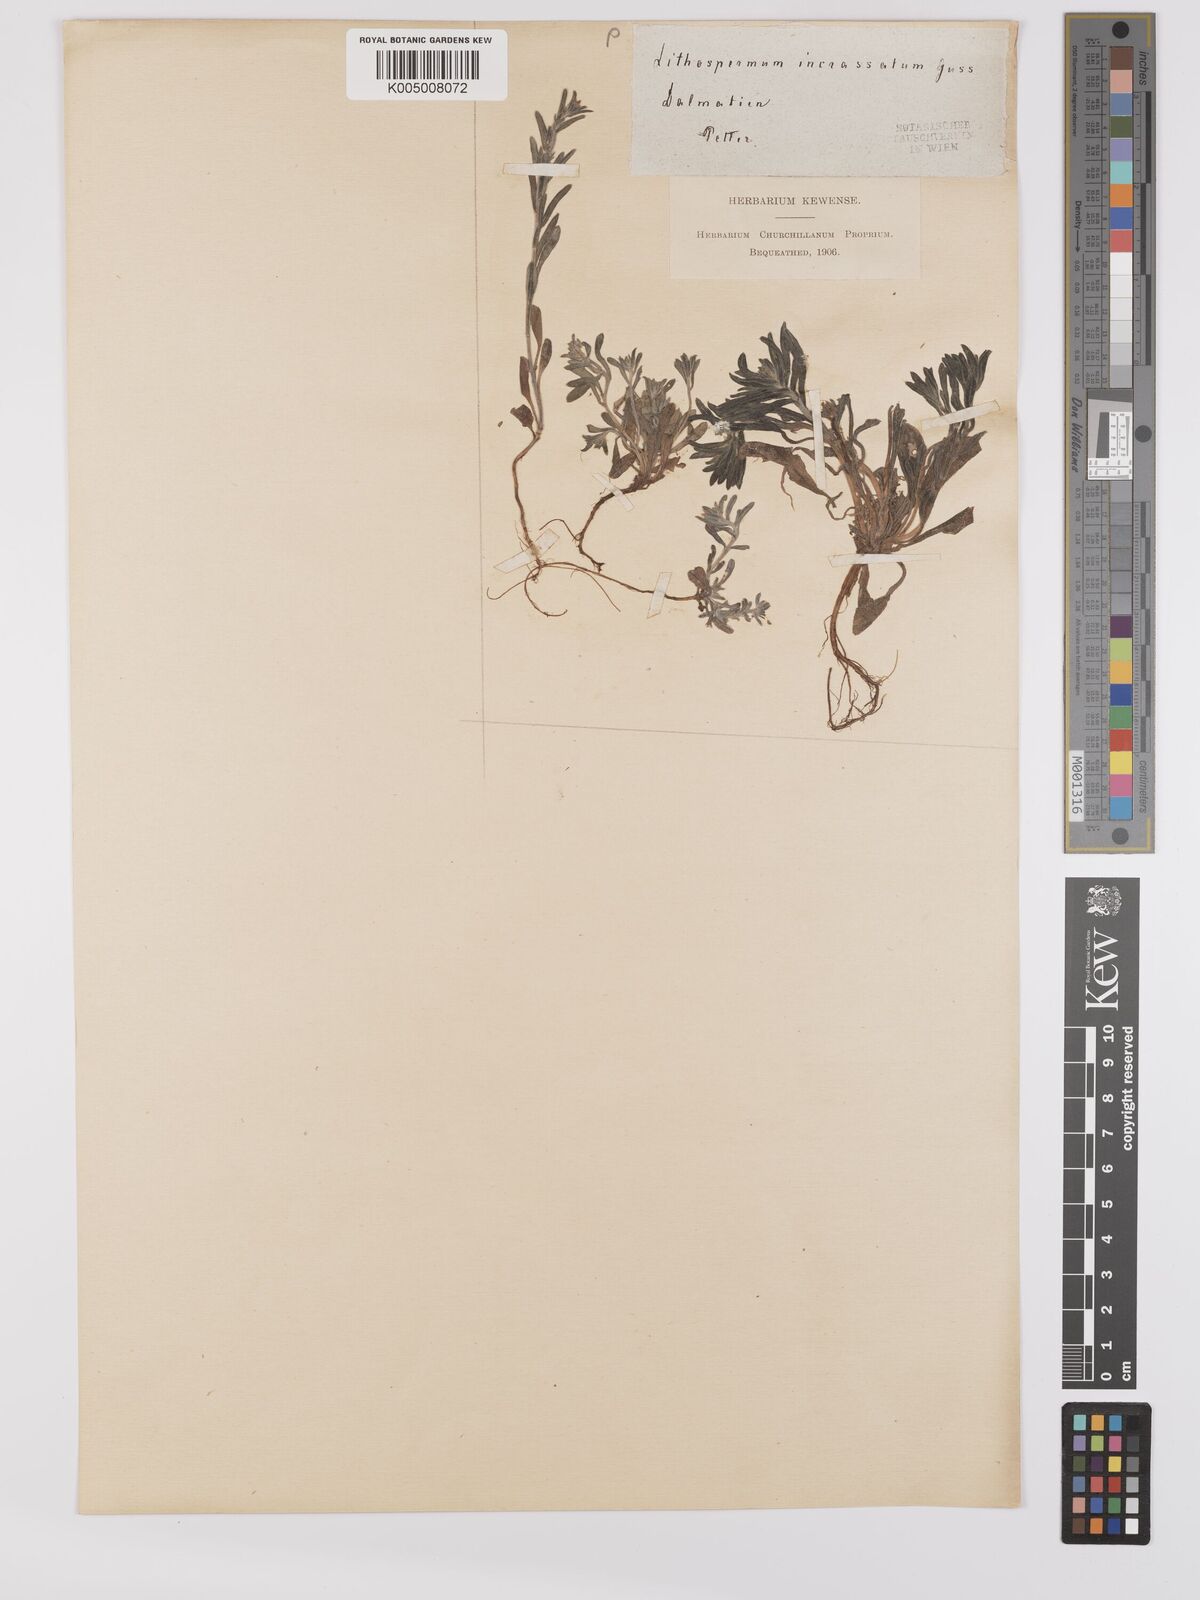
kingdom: Plantae
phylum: Tracheophyta
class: Magnoliopsida
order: Boraginales
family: Boraginaceae
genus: Buglossoides
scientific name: Buglossoides incrassata
